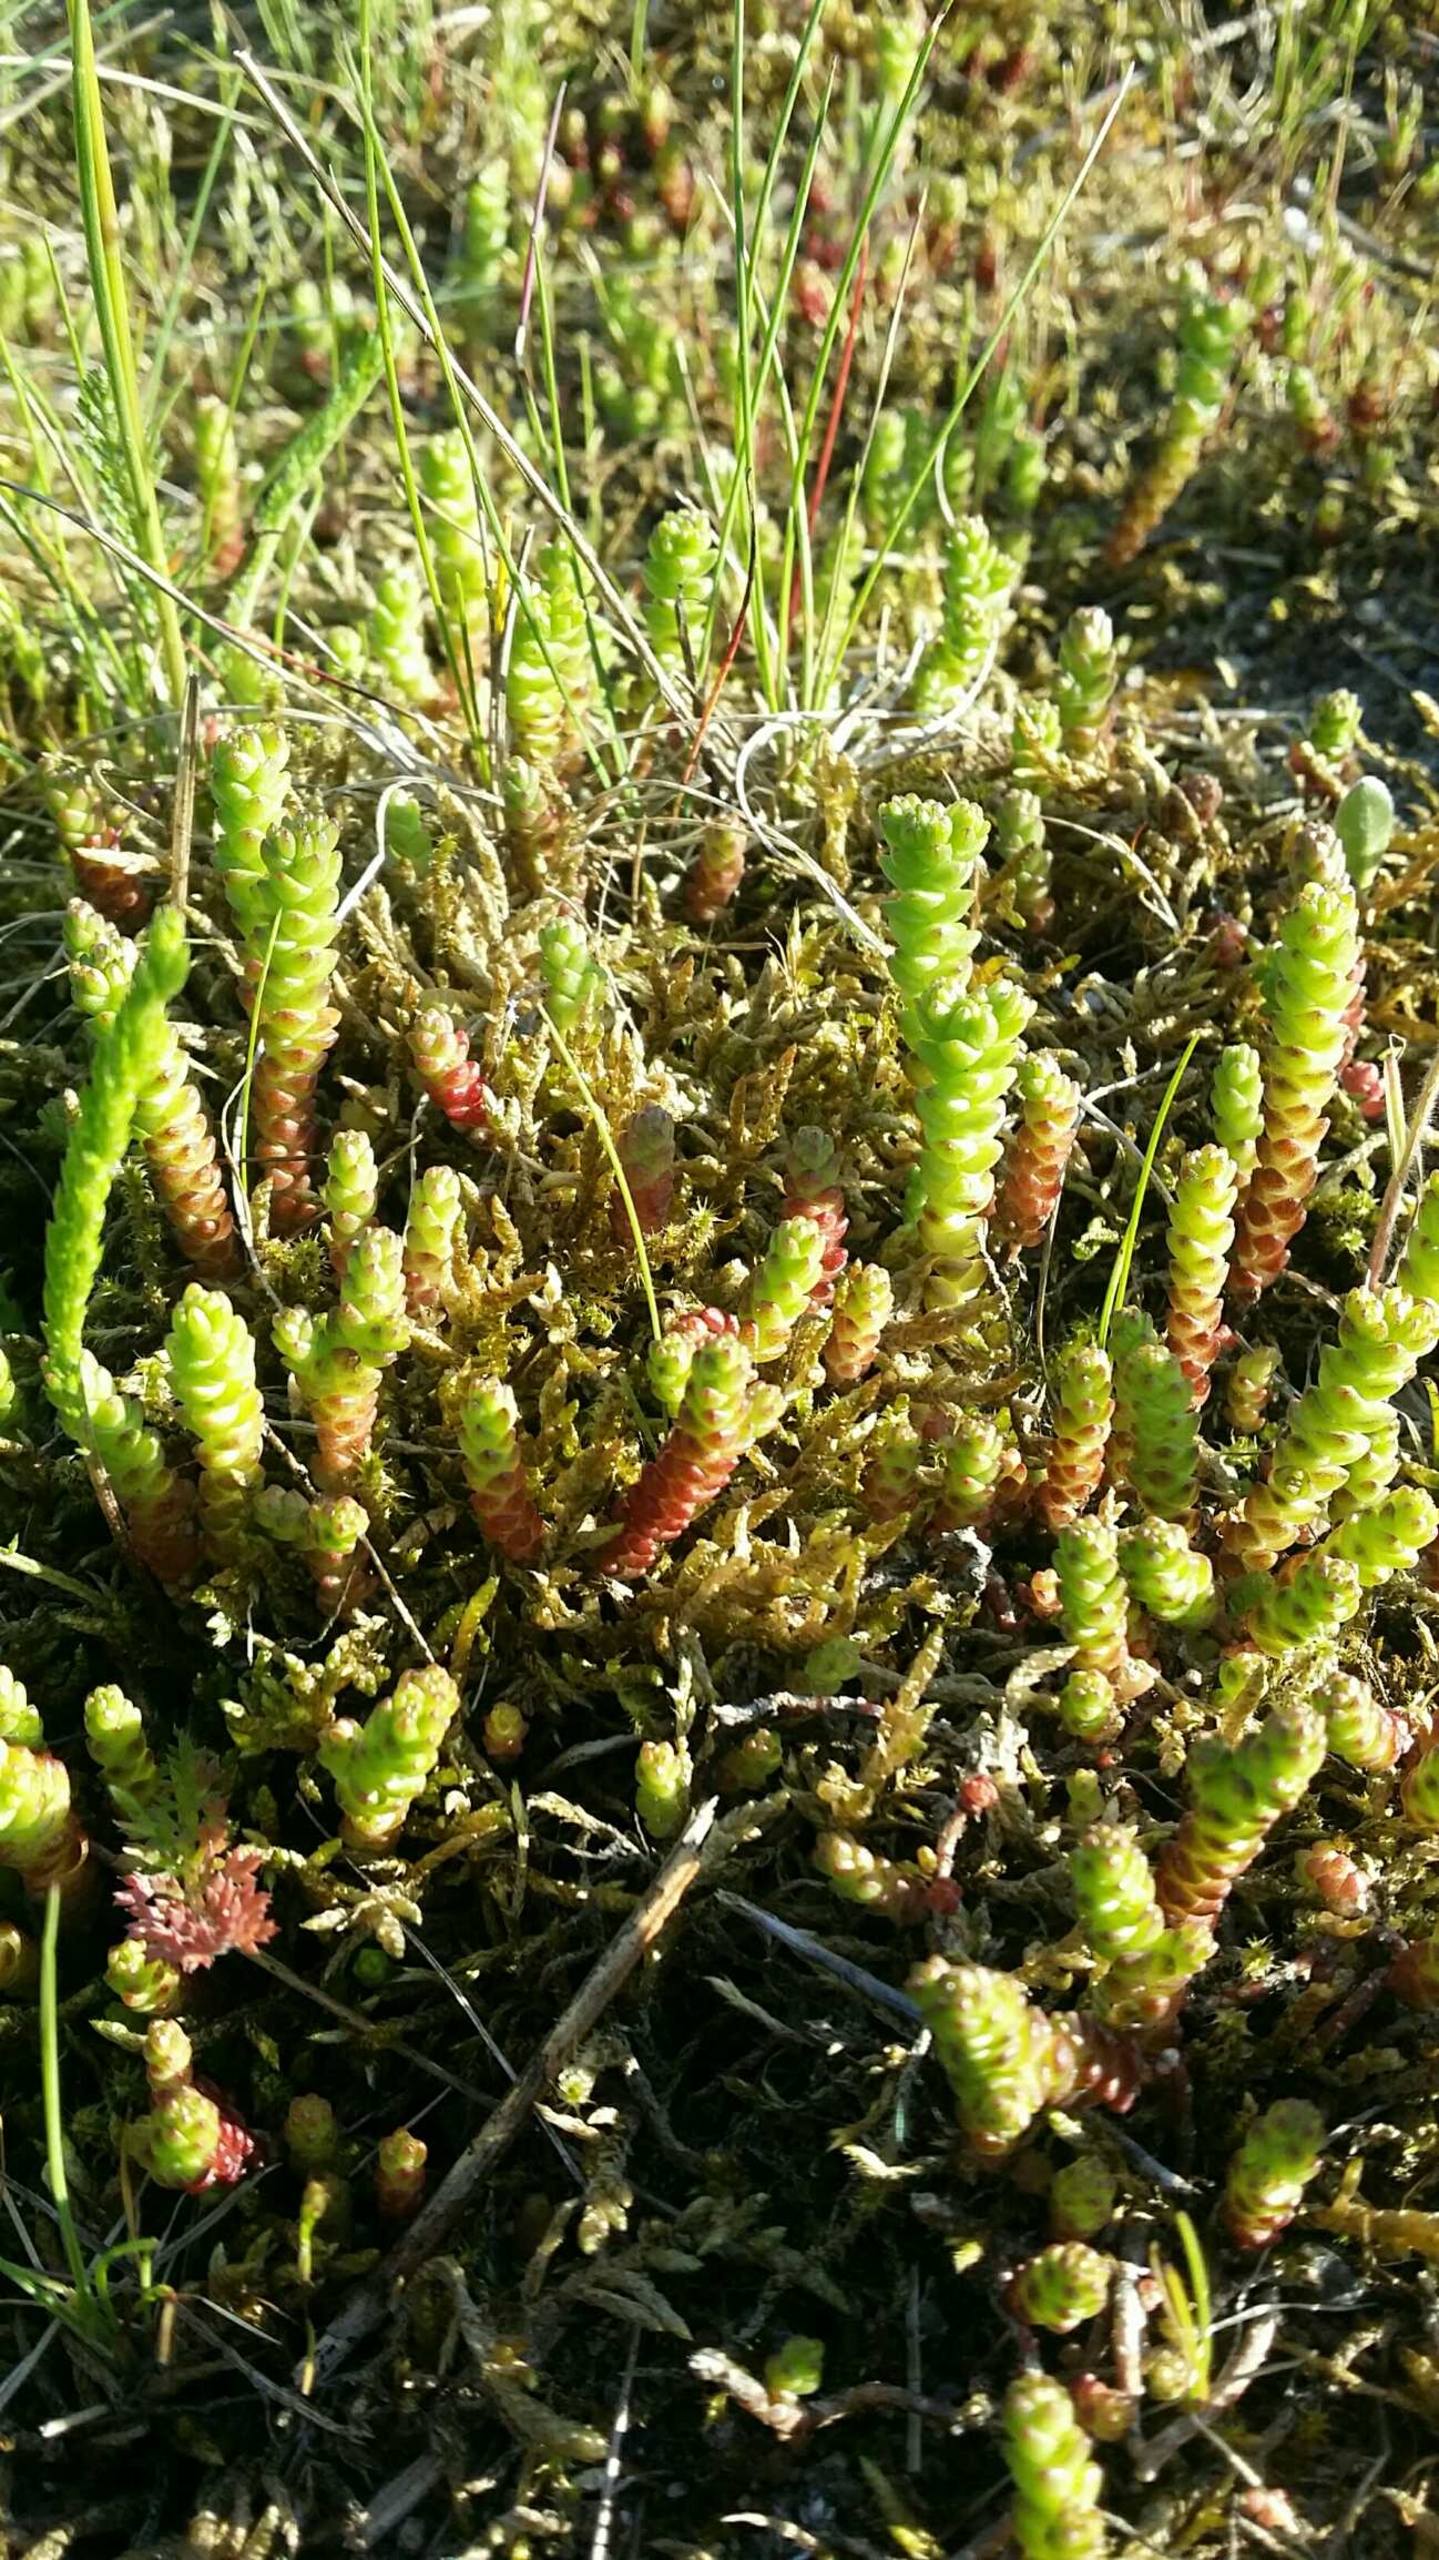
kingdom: Plantae
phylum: Tracheophyta
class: Magnoliopsida
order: Saxifragales
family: Crassulaceae
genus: Sedum
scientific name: Sedum acre
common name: Bidende stenurt
